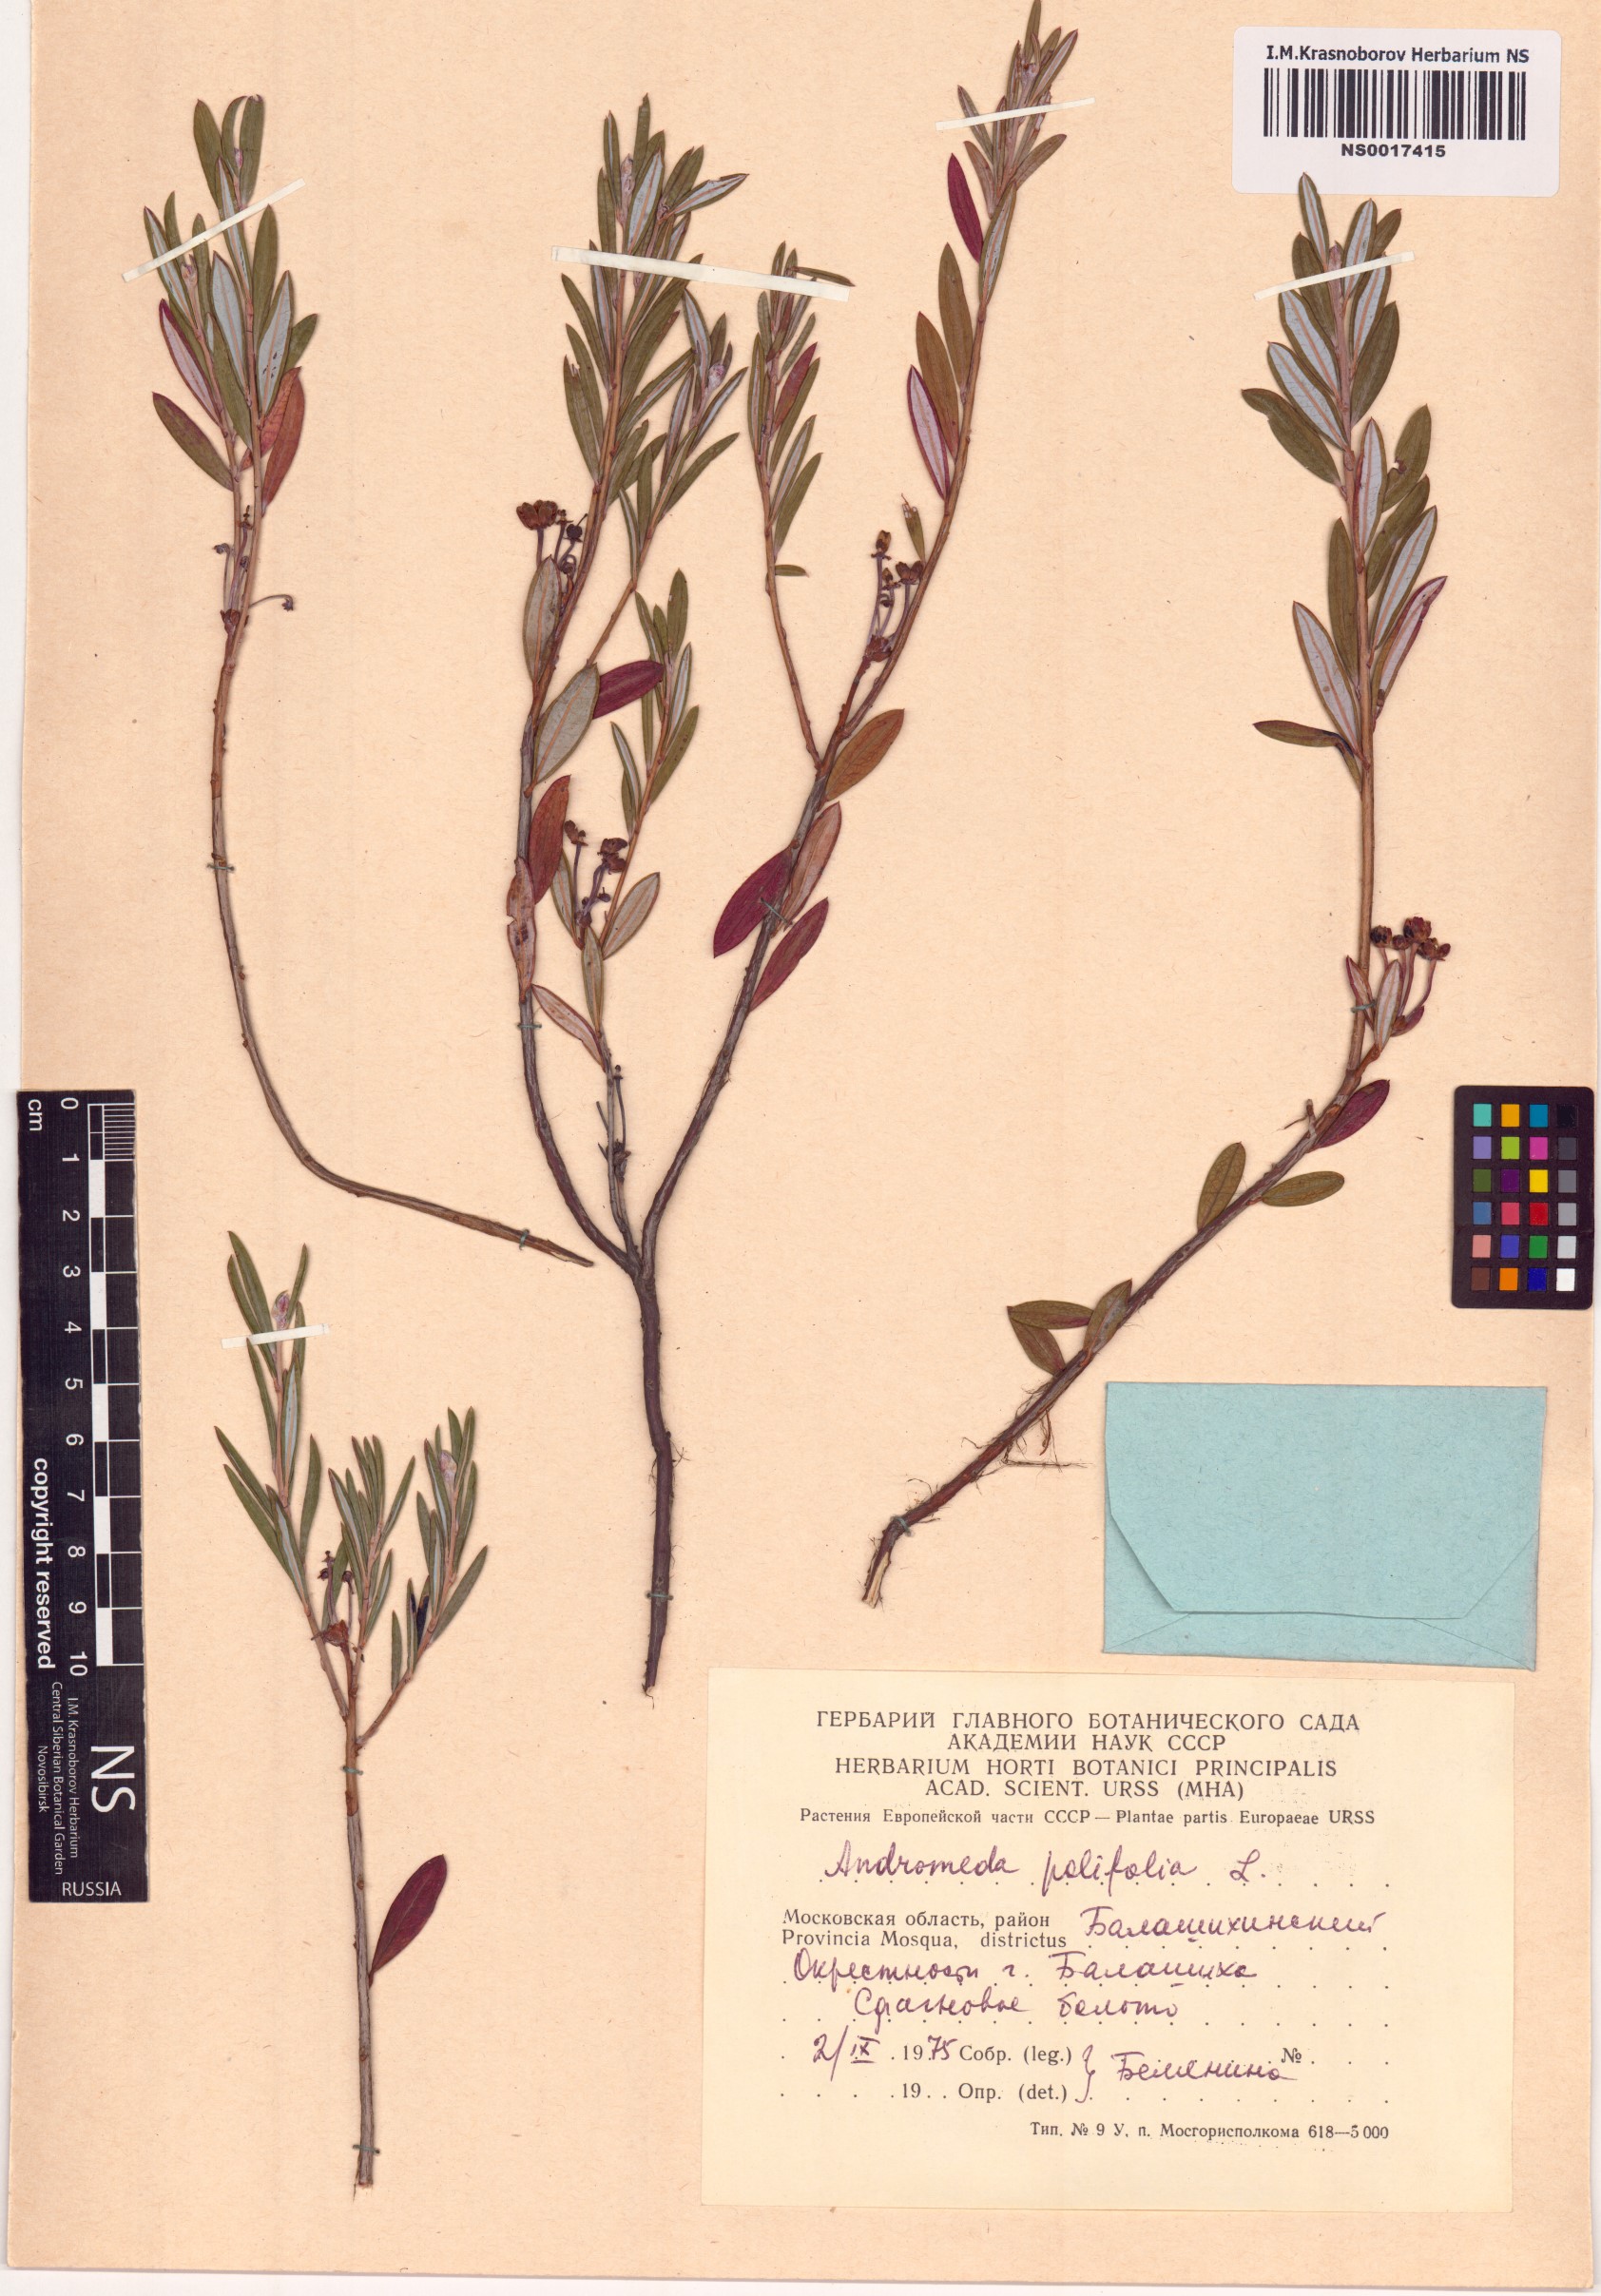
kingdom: Plantae
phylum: Tracheophyta
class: Magnoliopsida
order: Ericales
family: Ericaceae
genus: Andromeda
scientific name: Andromeda polifolia
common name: Bog-rosemary
